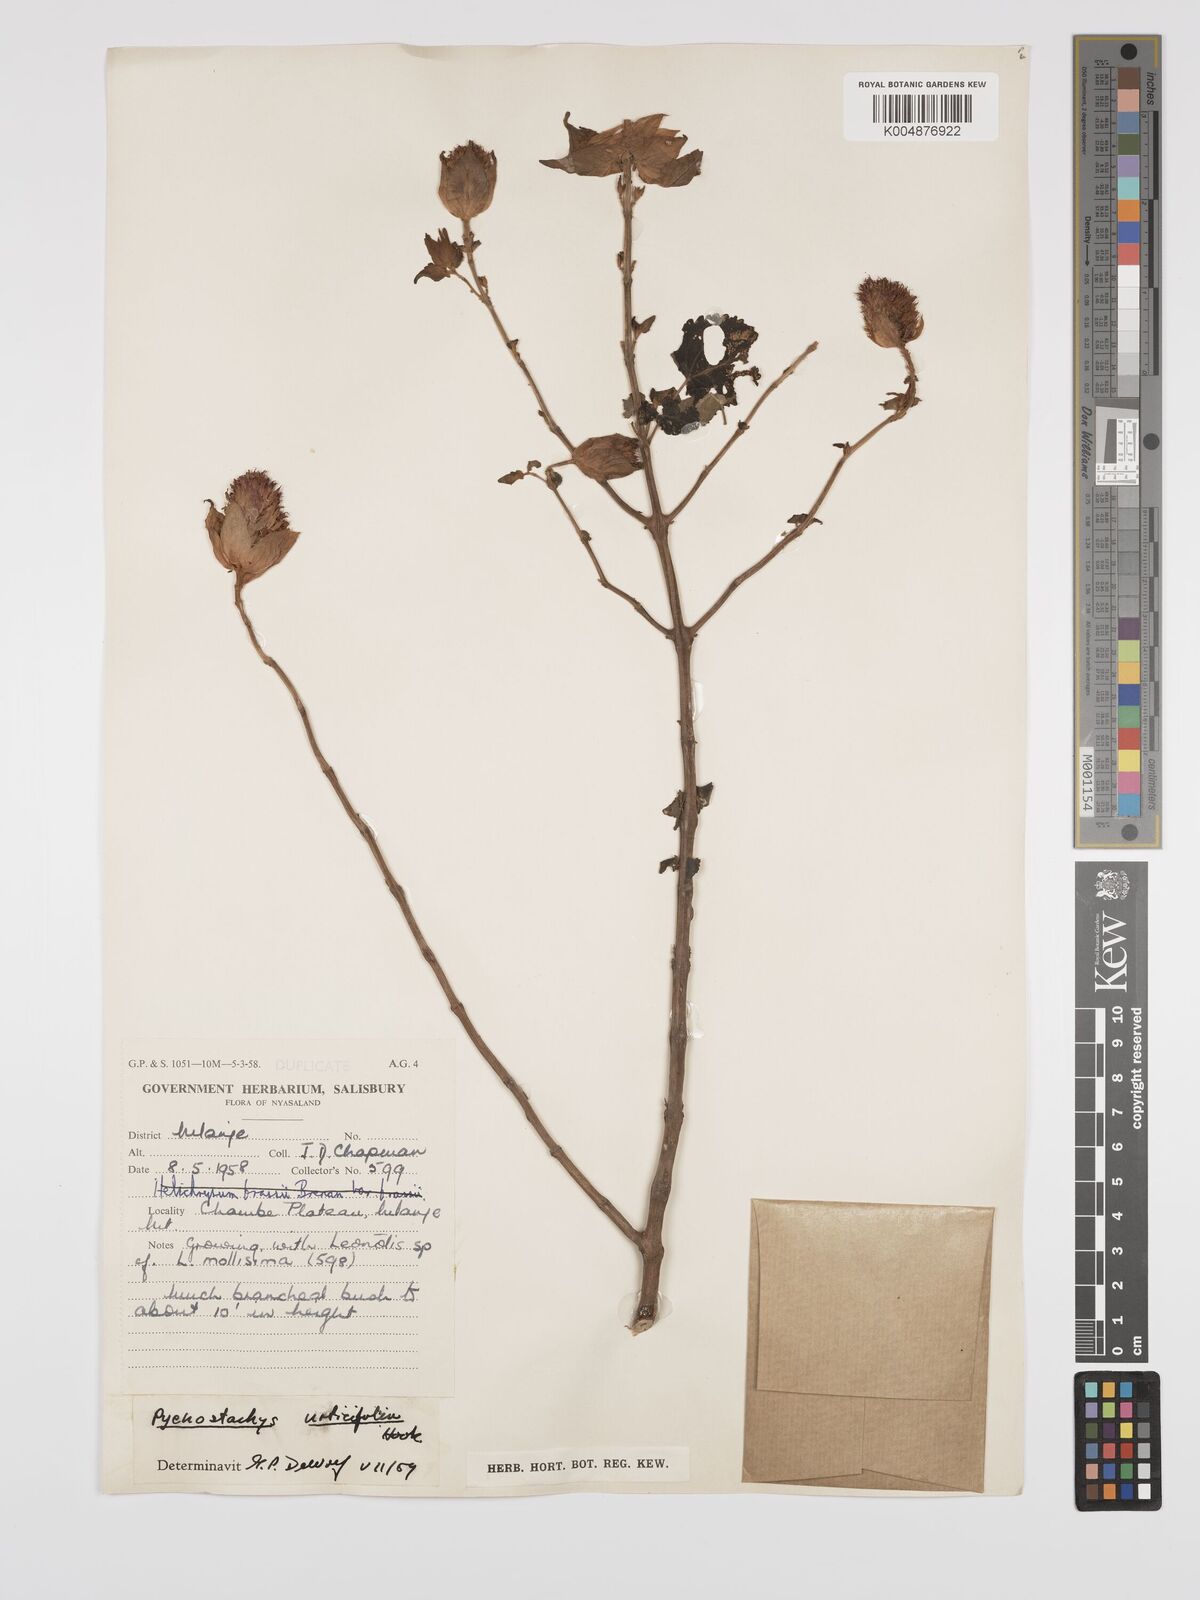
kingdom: Plantae
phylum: Tracheophyta
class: Magnoliopsida
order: Lamiales
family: Lamiaceae
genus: Coleus
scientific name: Coleus livingstonei
